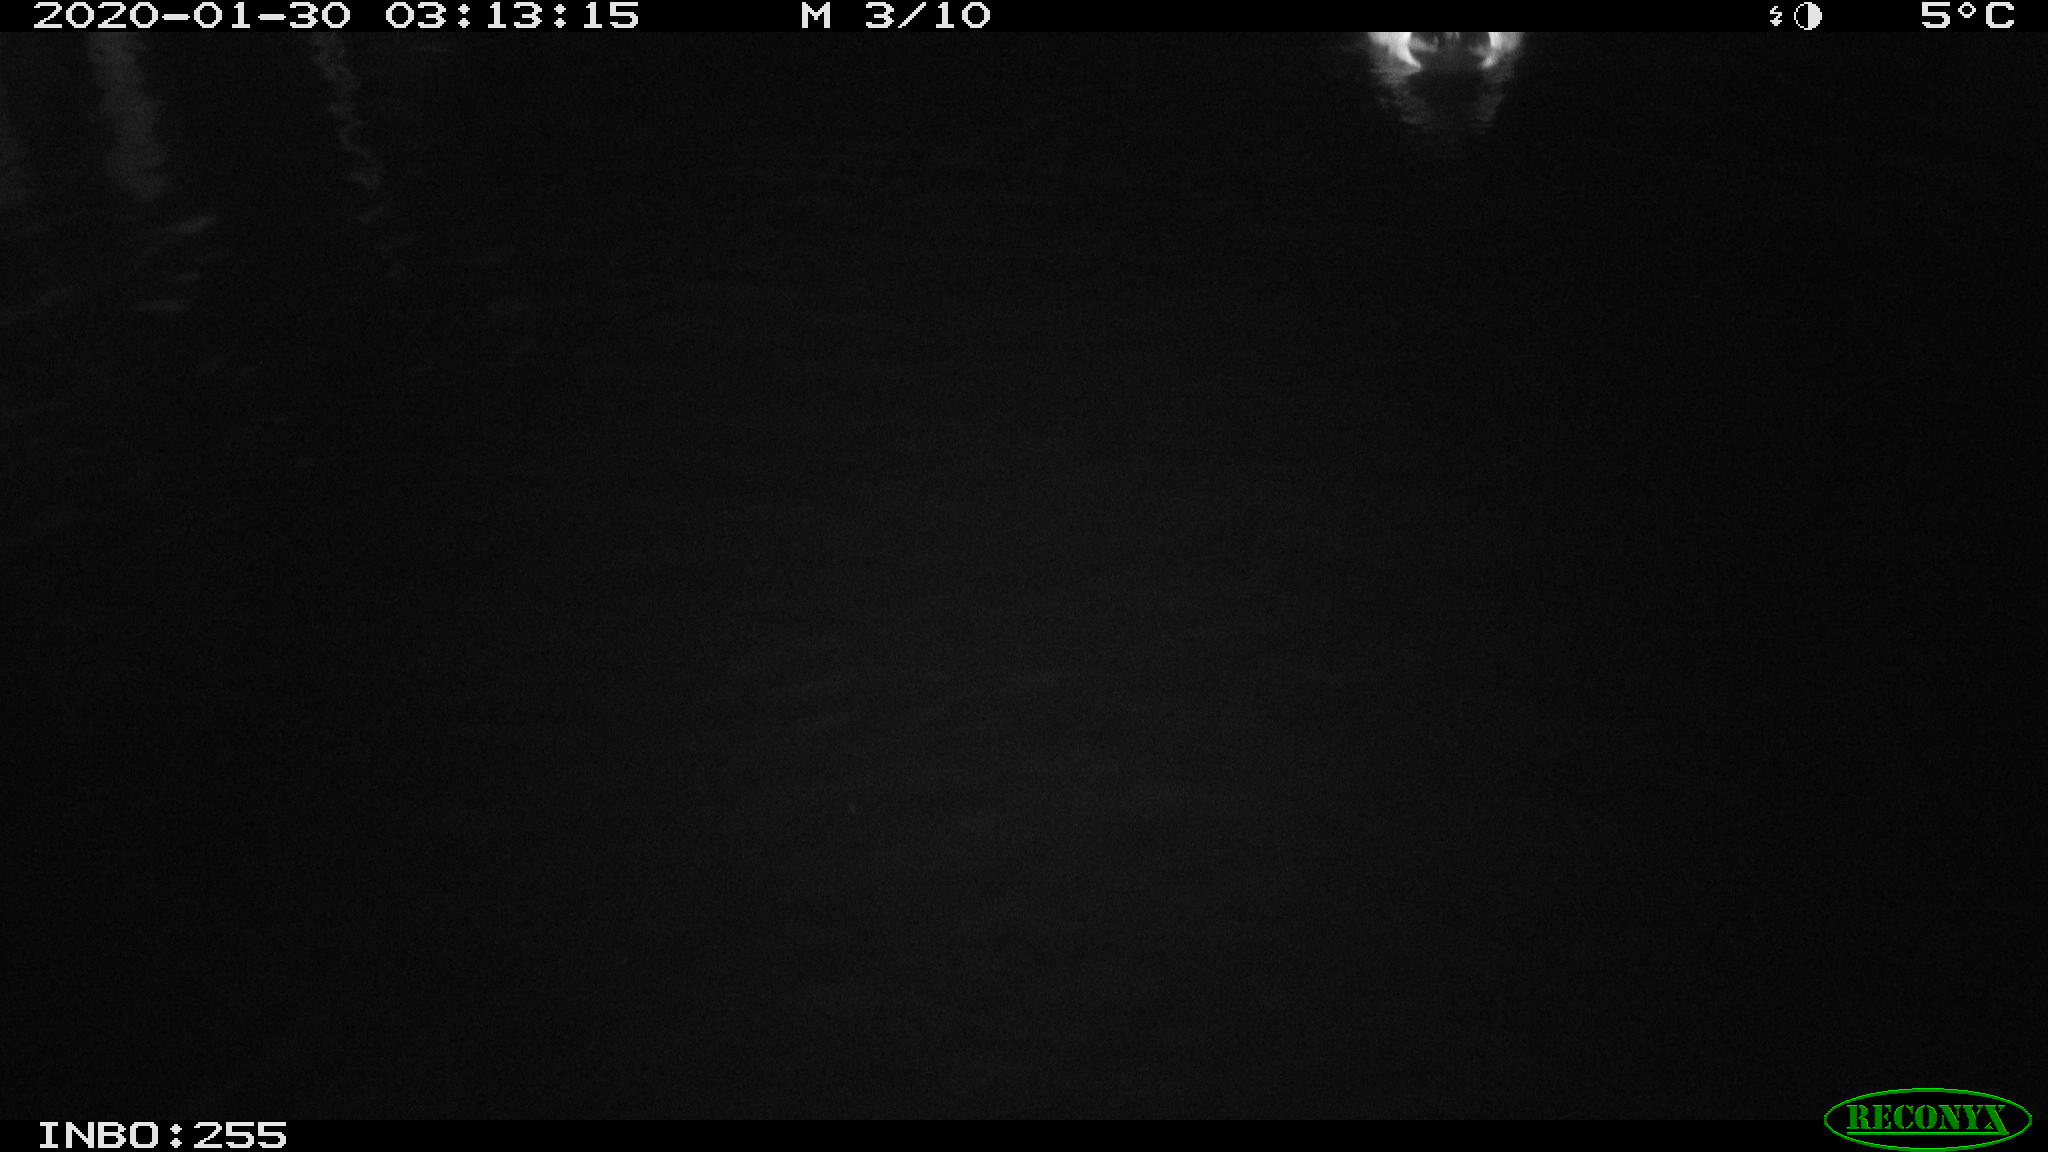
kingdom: Animalia
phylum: Chordata
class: Aves
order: Anseriformes
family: Anatidae
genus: Anas
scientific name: Anas platyrhynchos
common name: Mallard
